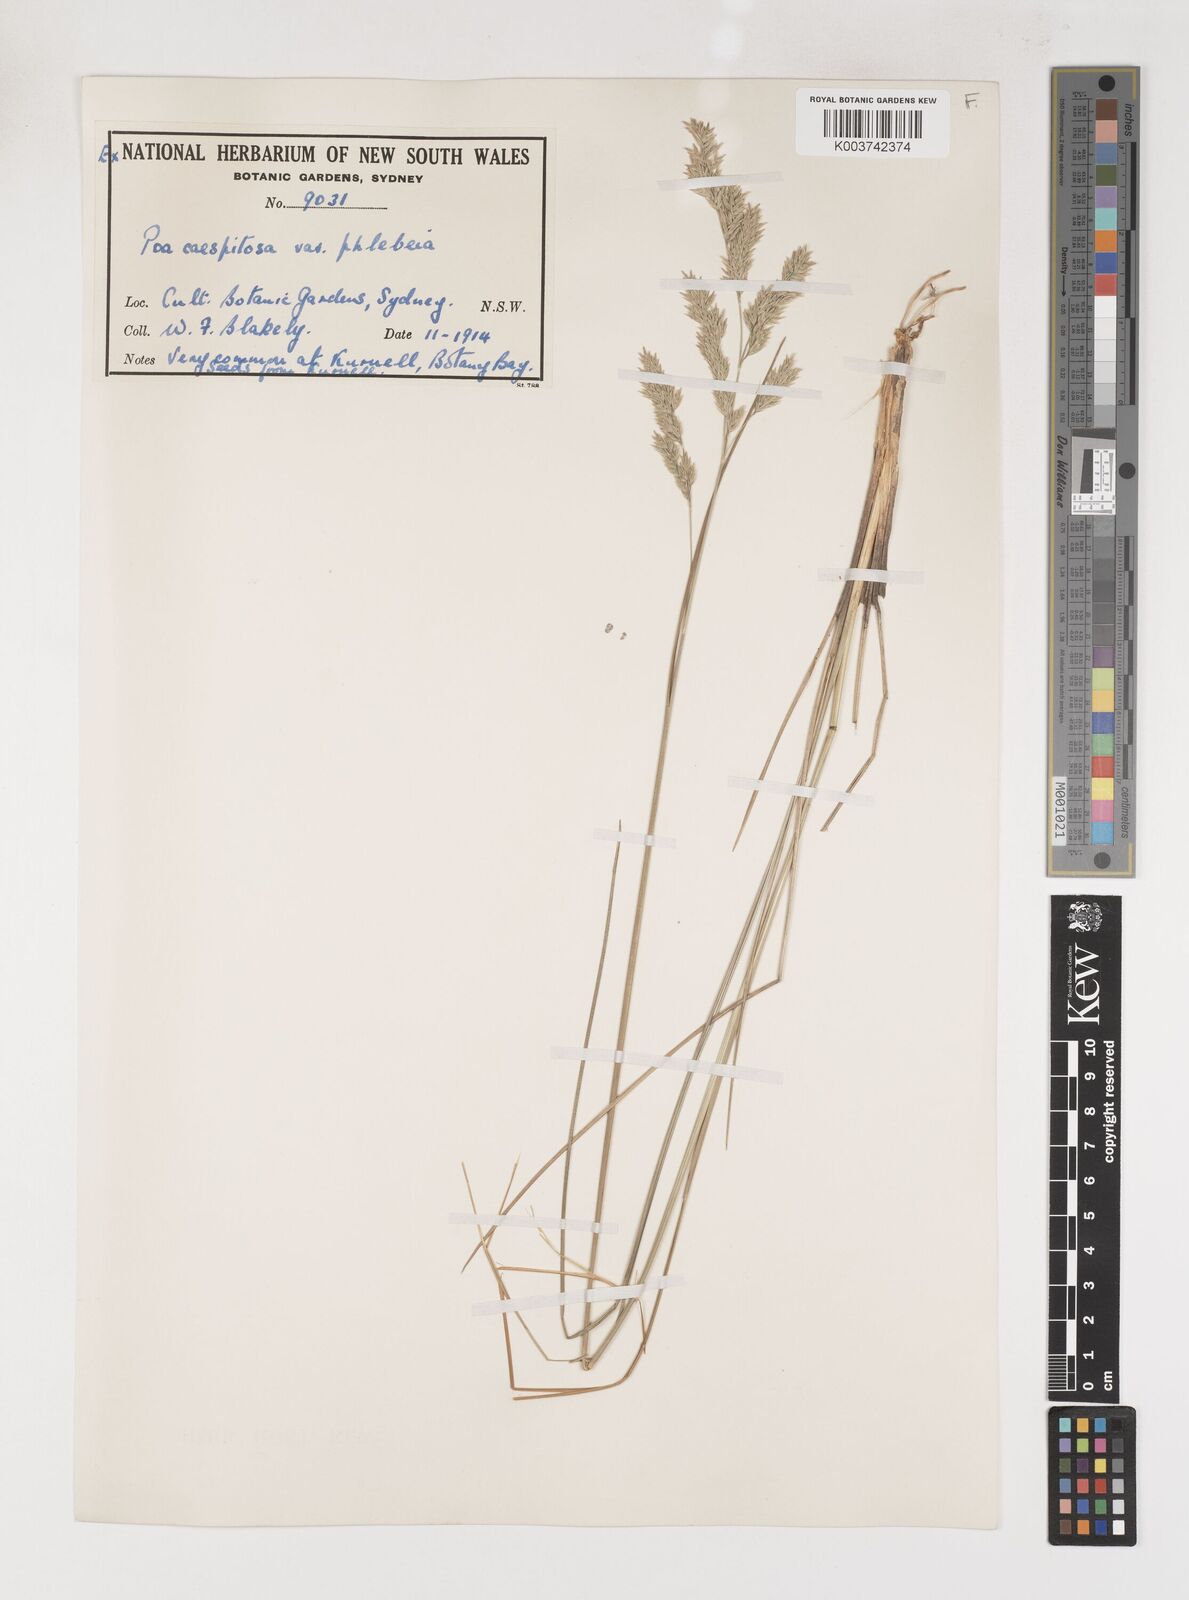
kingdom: Plantae
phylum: Tracheophyta
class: Liliopsida
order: Poales
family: Poaceae
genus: Poa
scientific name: Poa poiformis
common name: Tussock poa
